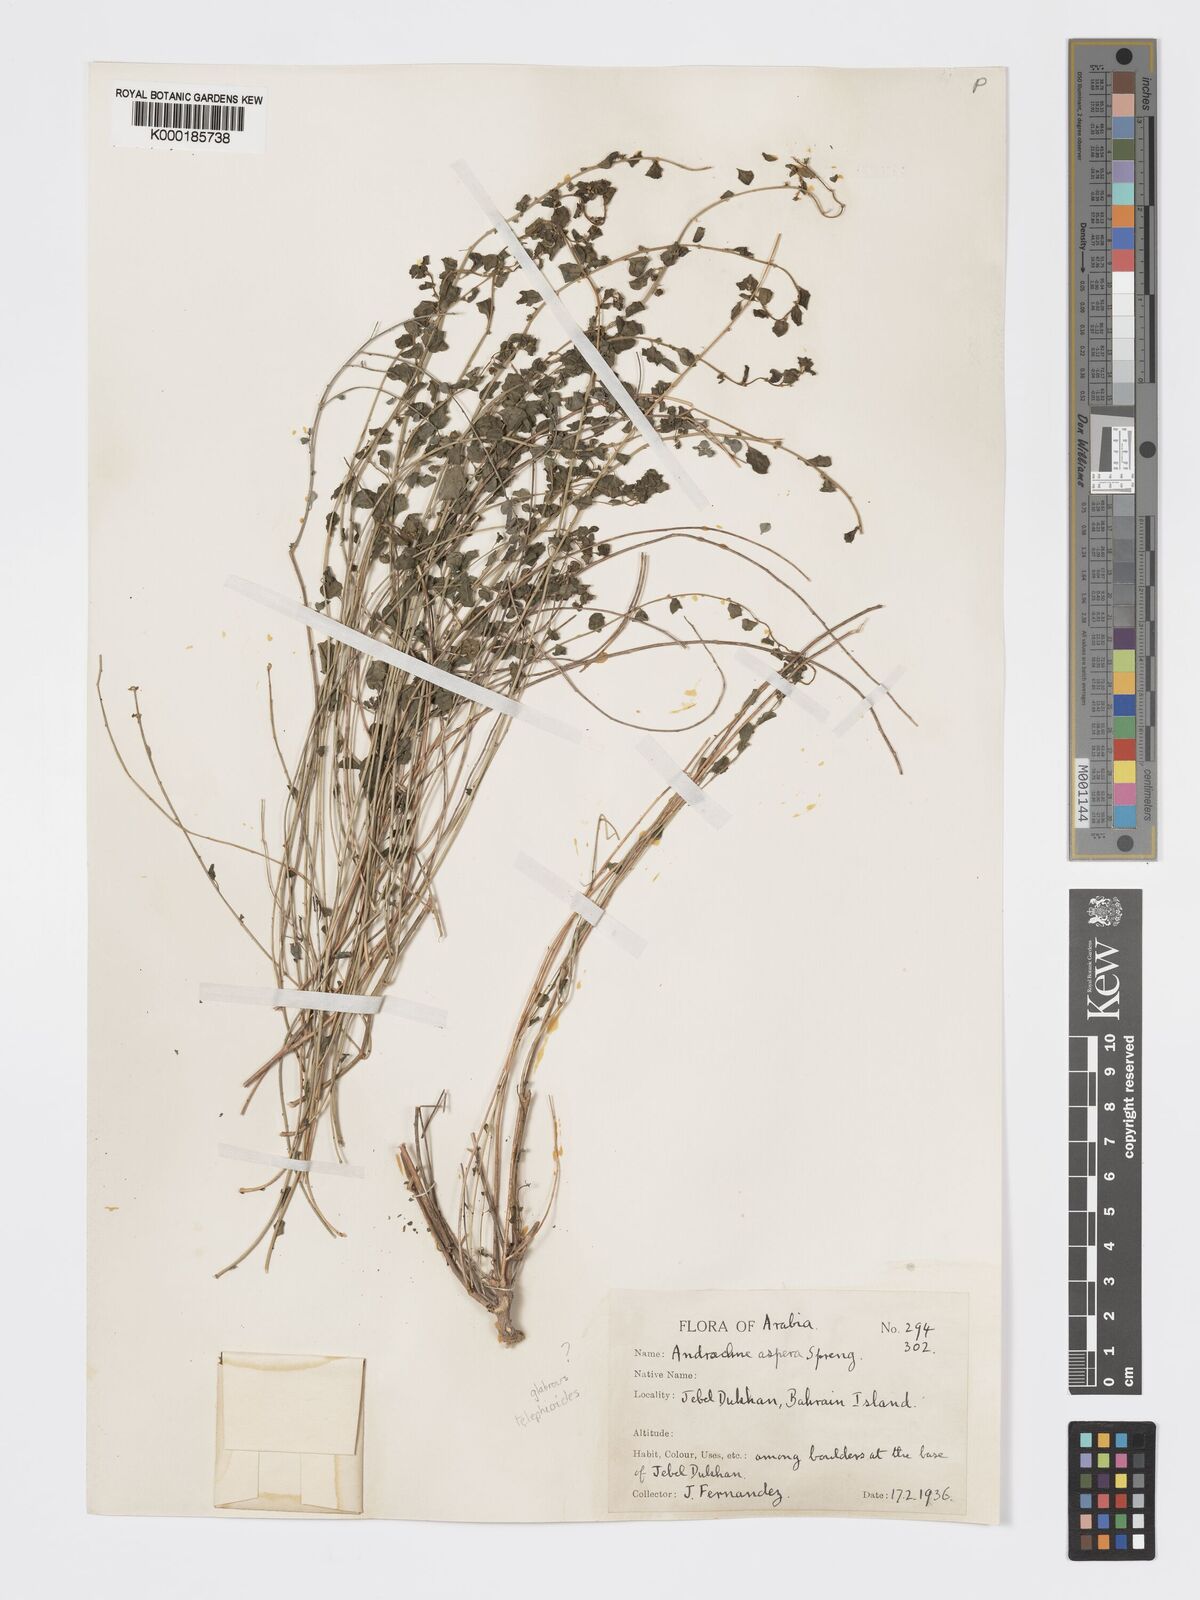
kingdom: Plantae
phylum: Tracheophyta
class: Magnoliopsida
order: Malpighiales
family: Phyllanthaceae
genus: Andrachne
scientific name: Andrachne aspera
